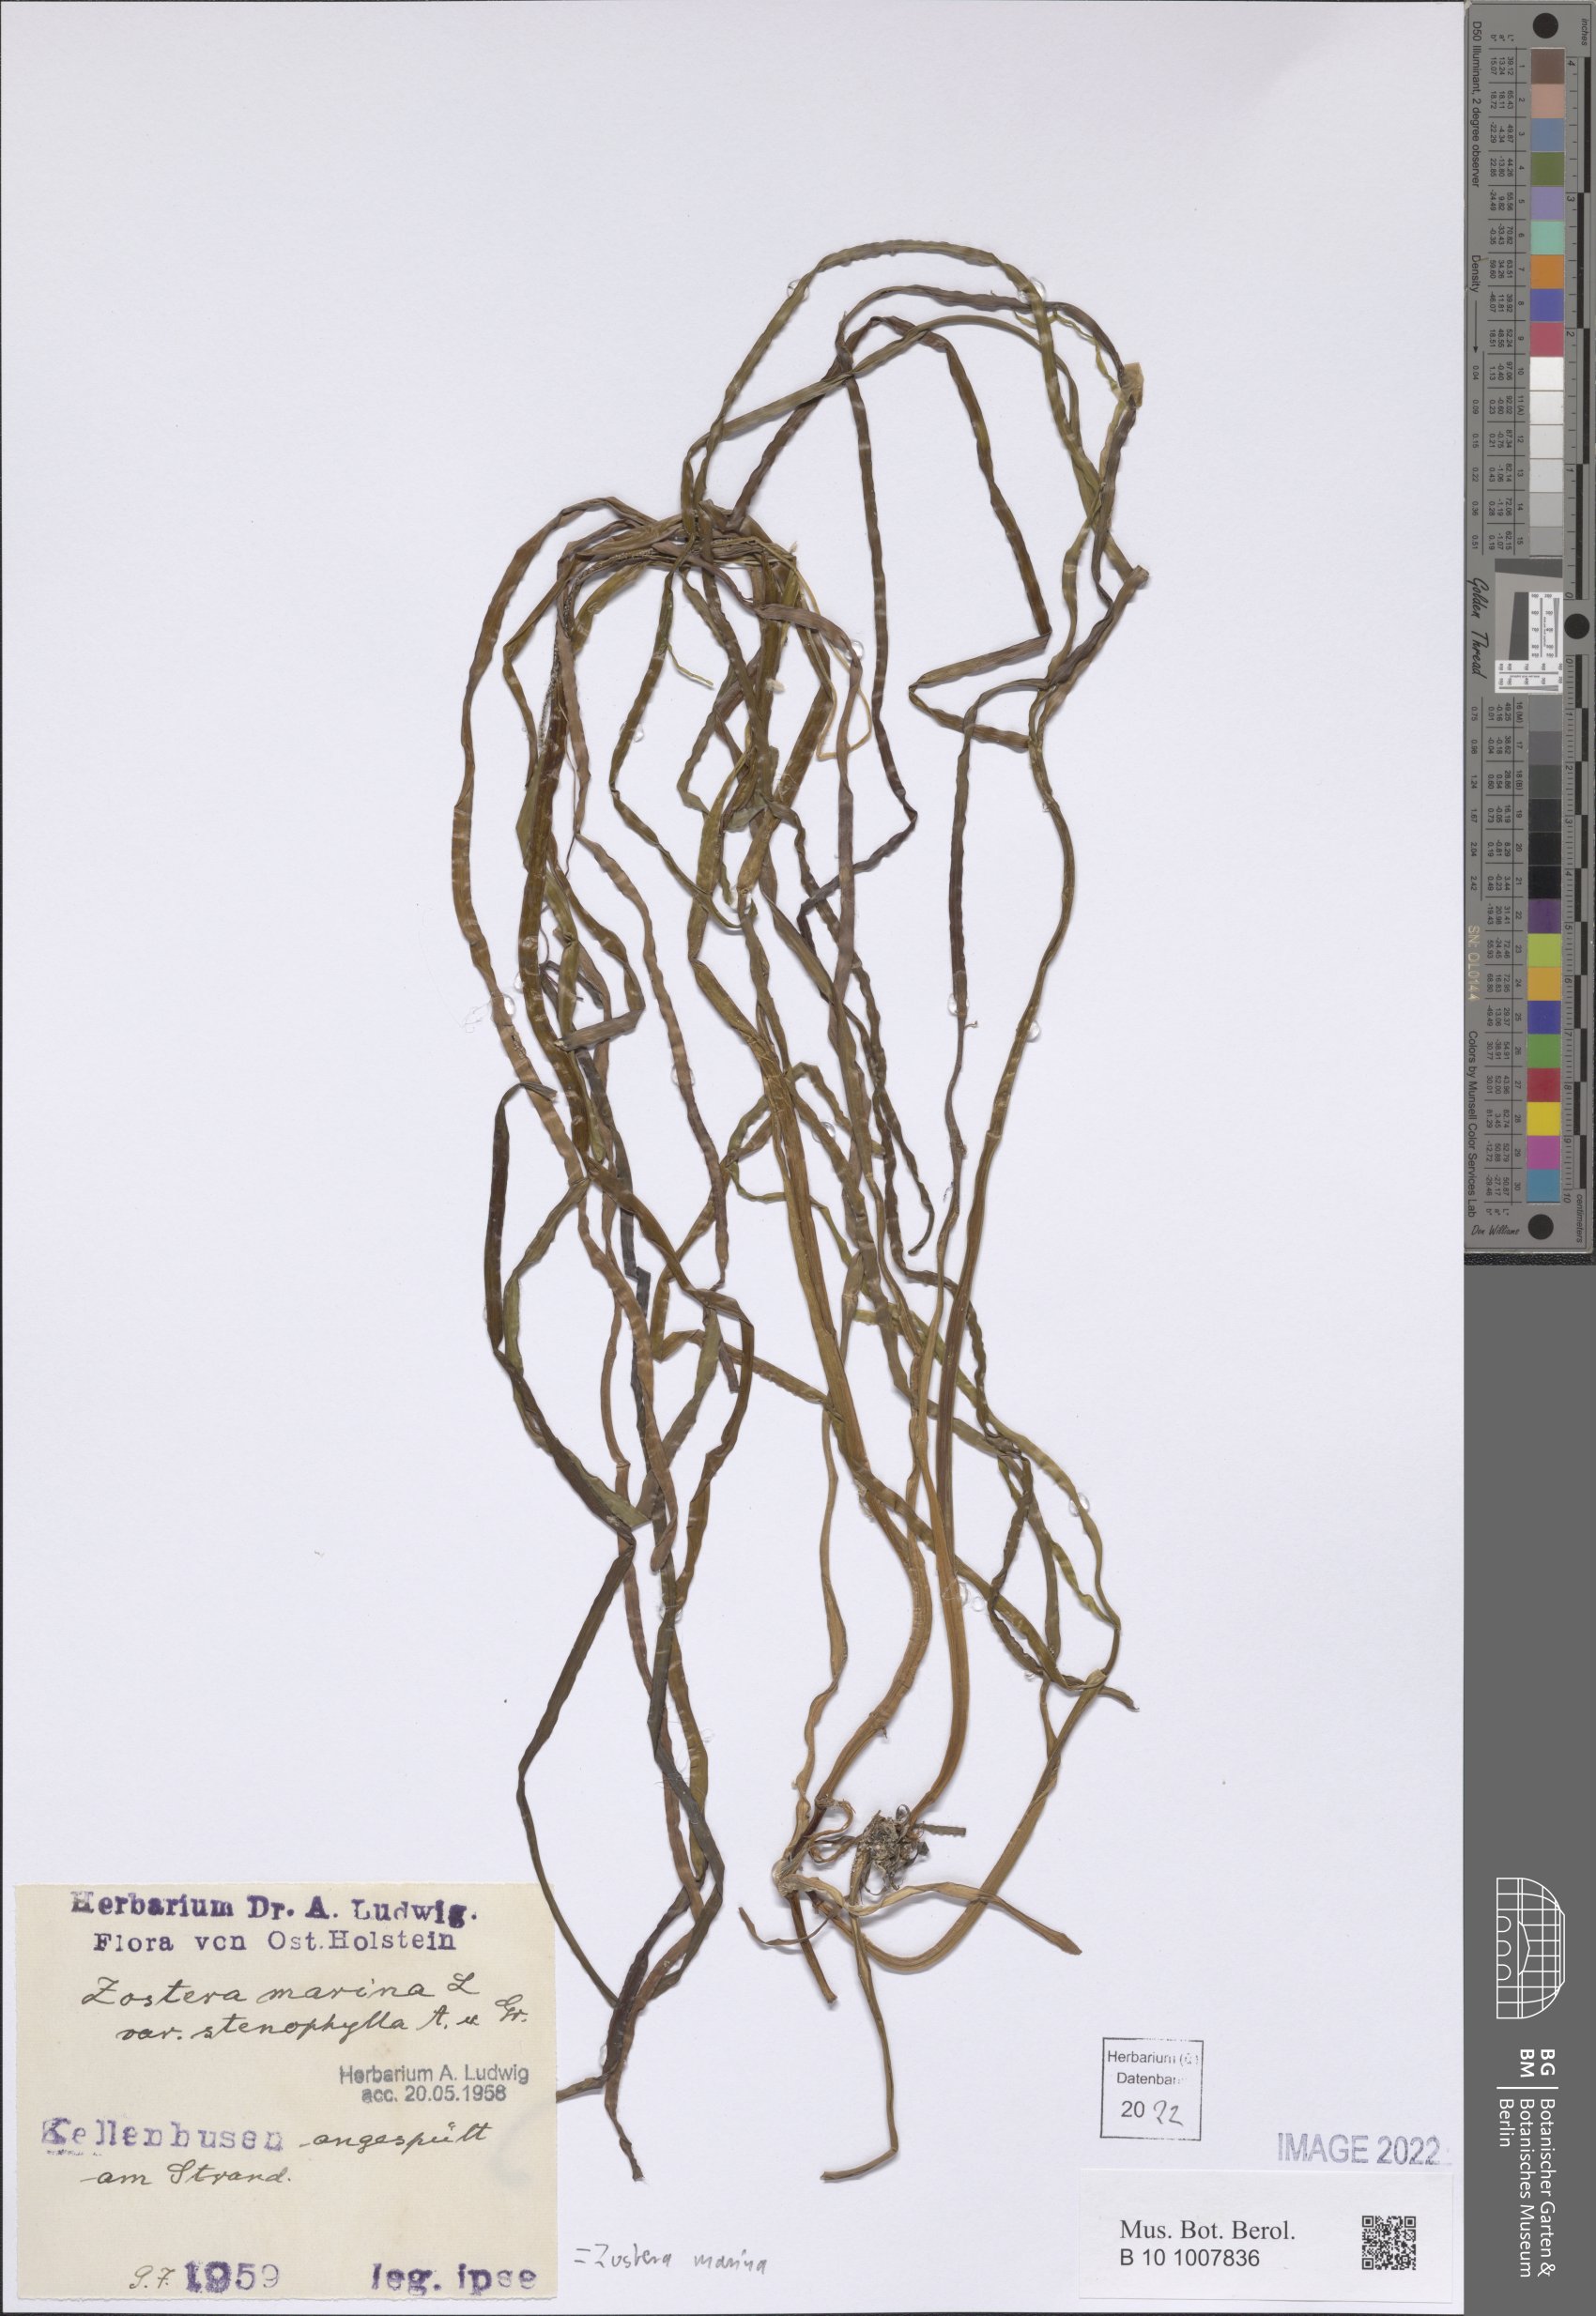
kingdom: Plantae
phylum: Tracheophyta
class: Liliopsida
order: Alismatales
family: Zosteraceae
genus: Zostera
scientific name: Zostera marina
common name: Eelgrass
